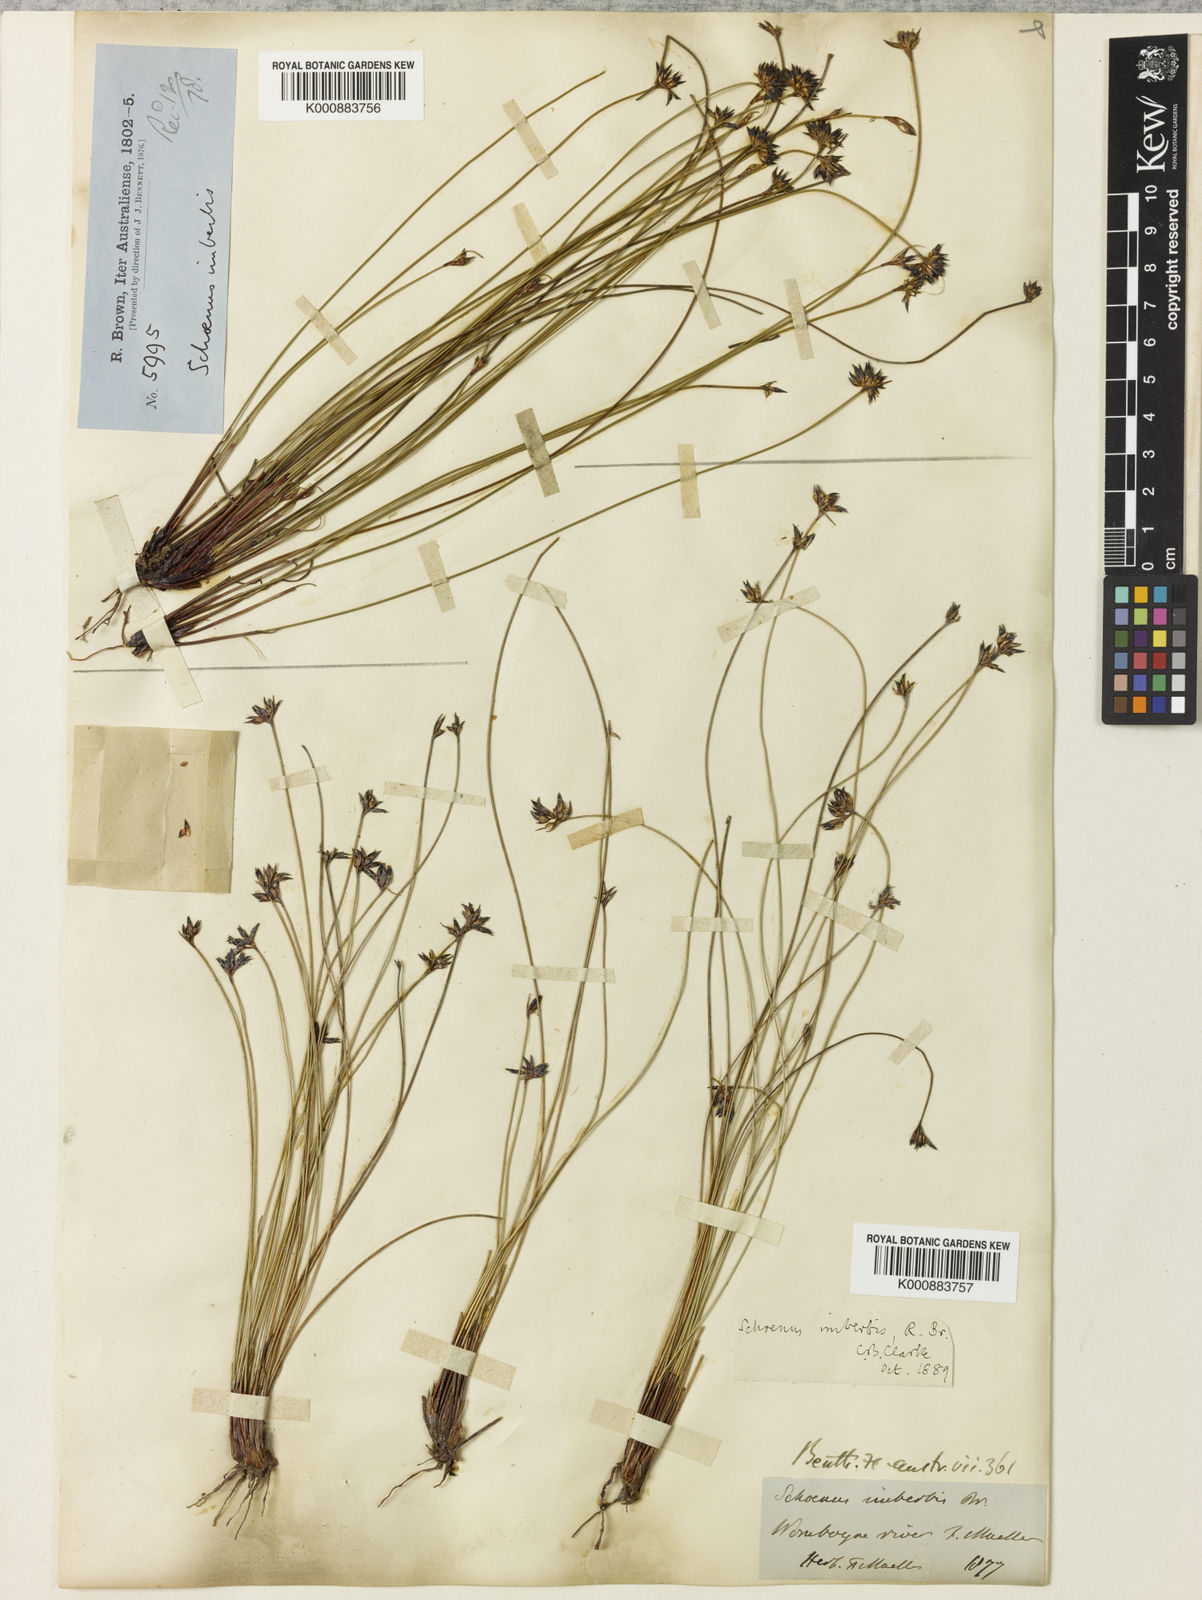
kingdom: Plantae
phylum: Tracheophyta
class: Liliopsida
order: Poales
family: Cyperaceae
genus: Schoenus
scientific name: Schoenus imberbis
